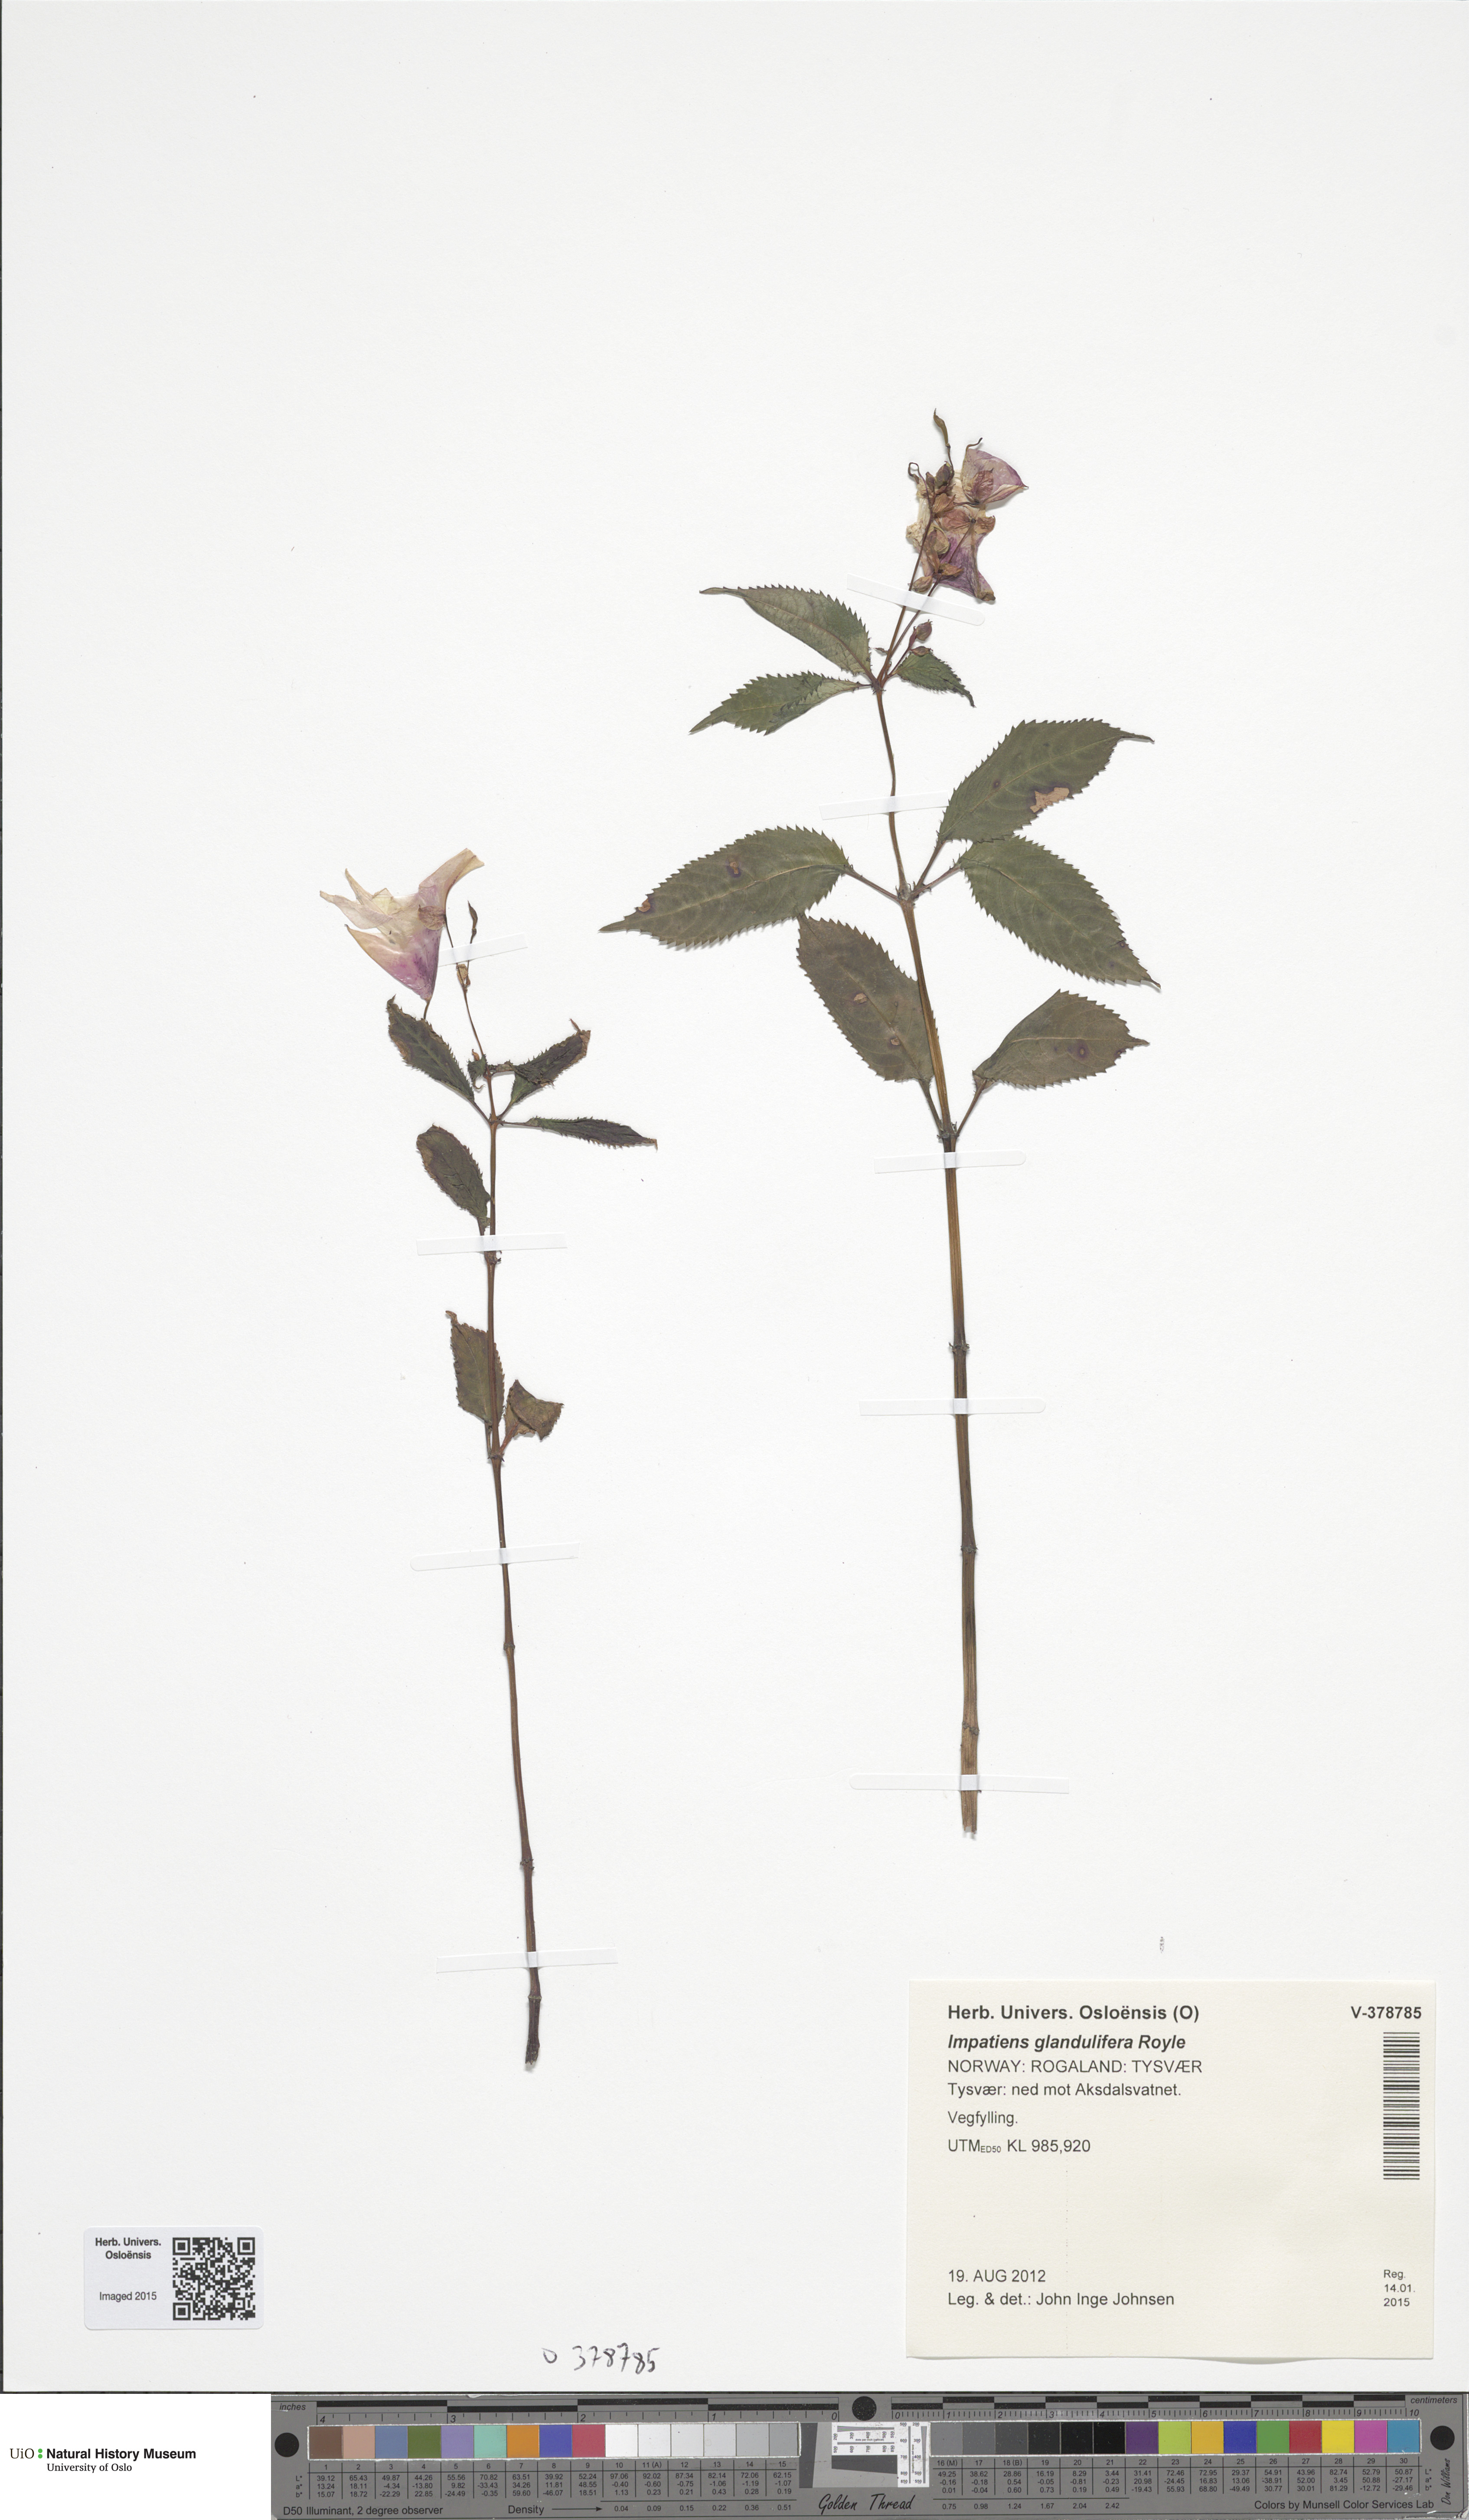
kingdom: Plantae
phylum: Tracheophyta
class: Magnoliopsida
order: Ericales
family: Balsaminaceae
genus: Impatiens
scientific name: Impatiens glandulifera
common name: Himalayan balsam
